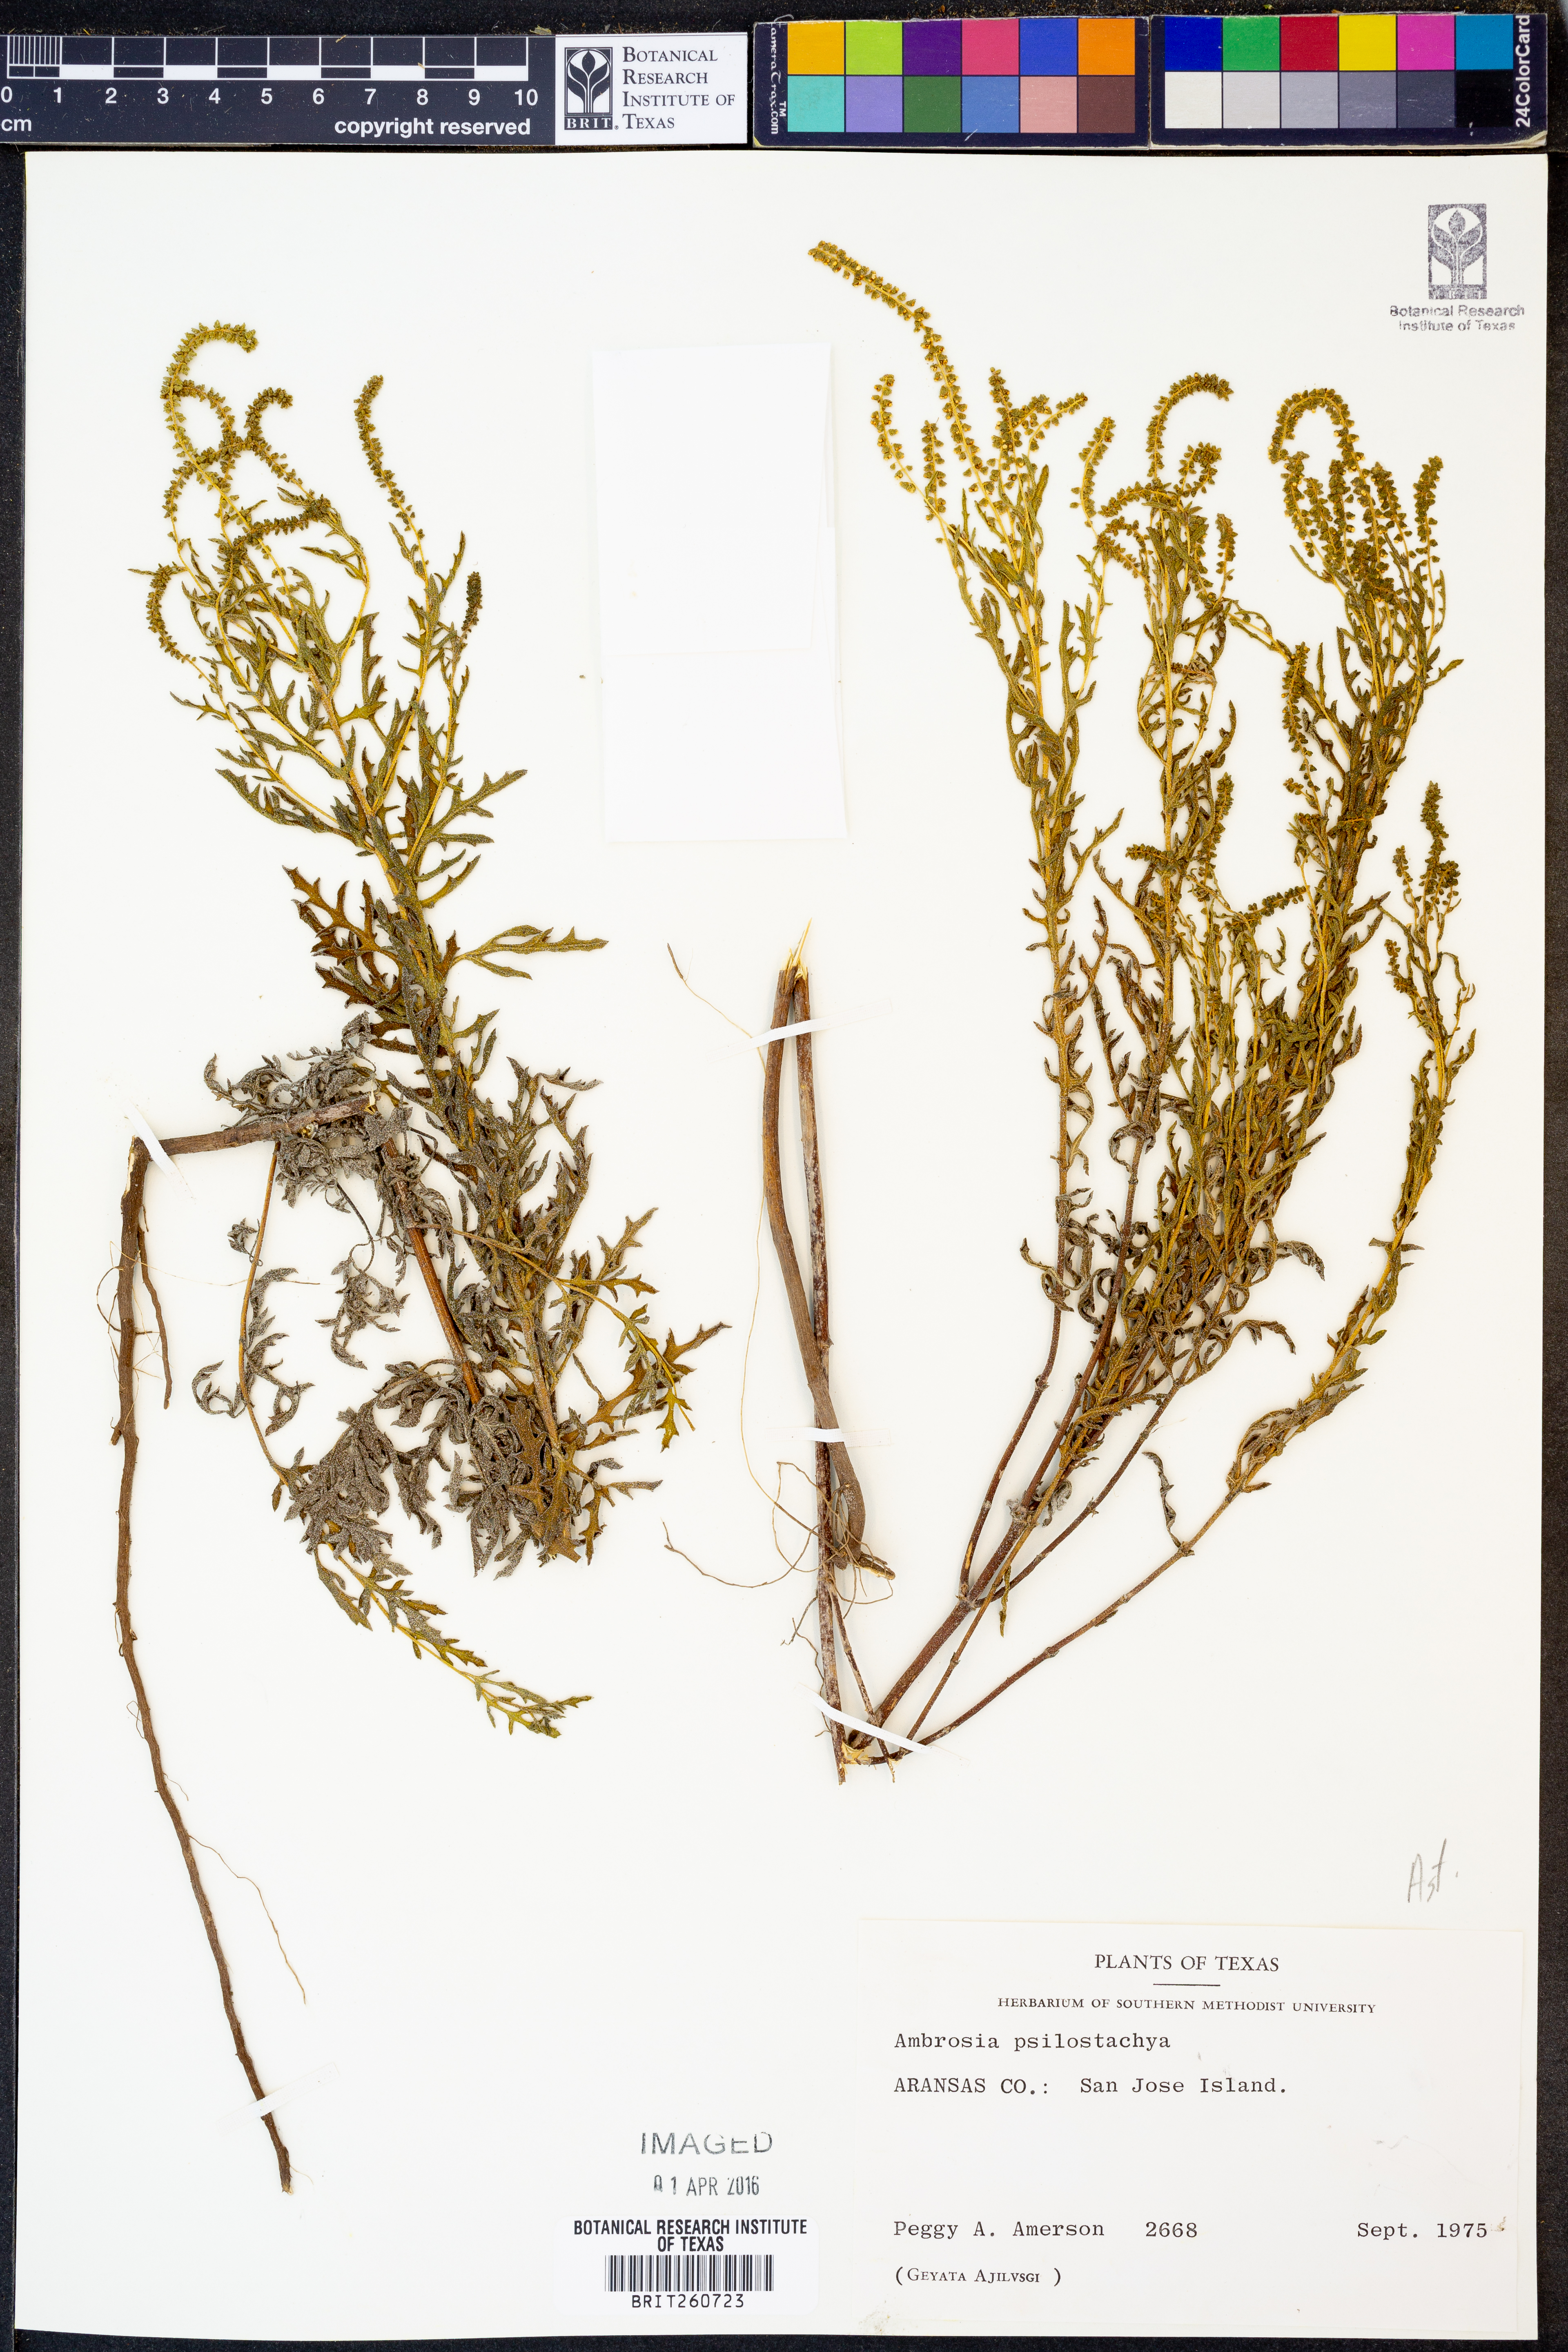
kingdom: Plantae
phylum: Tracheophyta
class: Magnoliopsida
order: Asterales
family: Asteraceae
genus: Ambrosia
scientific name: Ambrosia psilostachya
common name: Perennial ragweed
